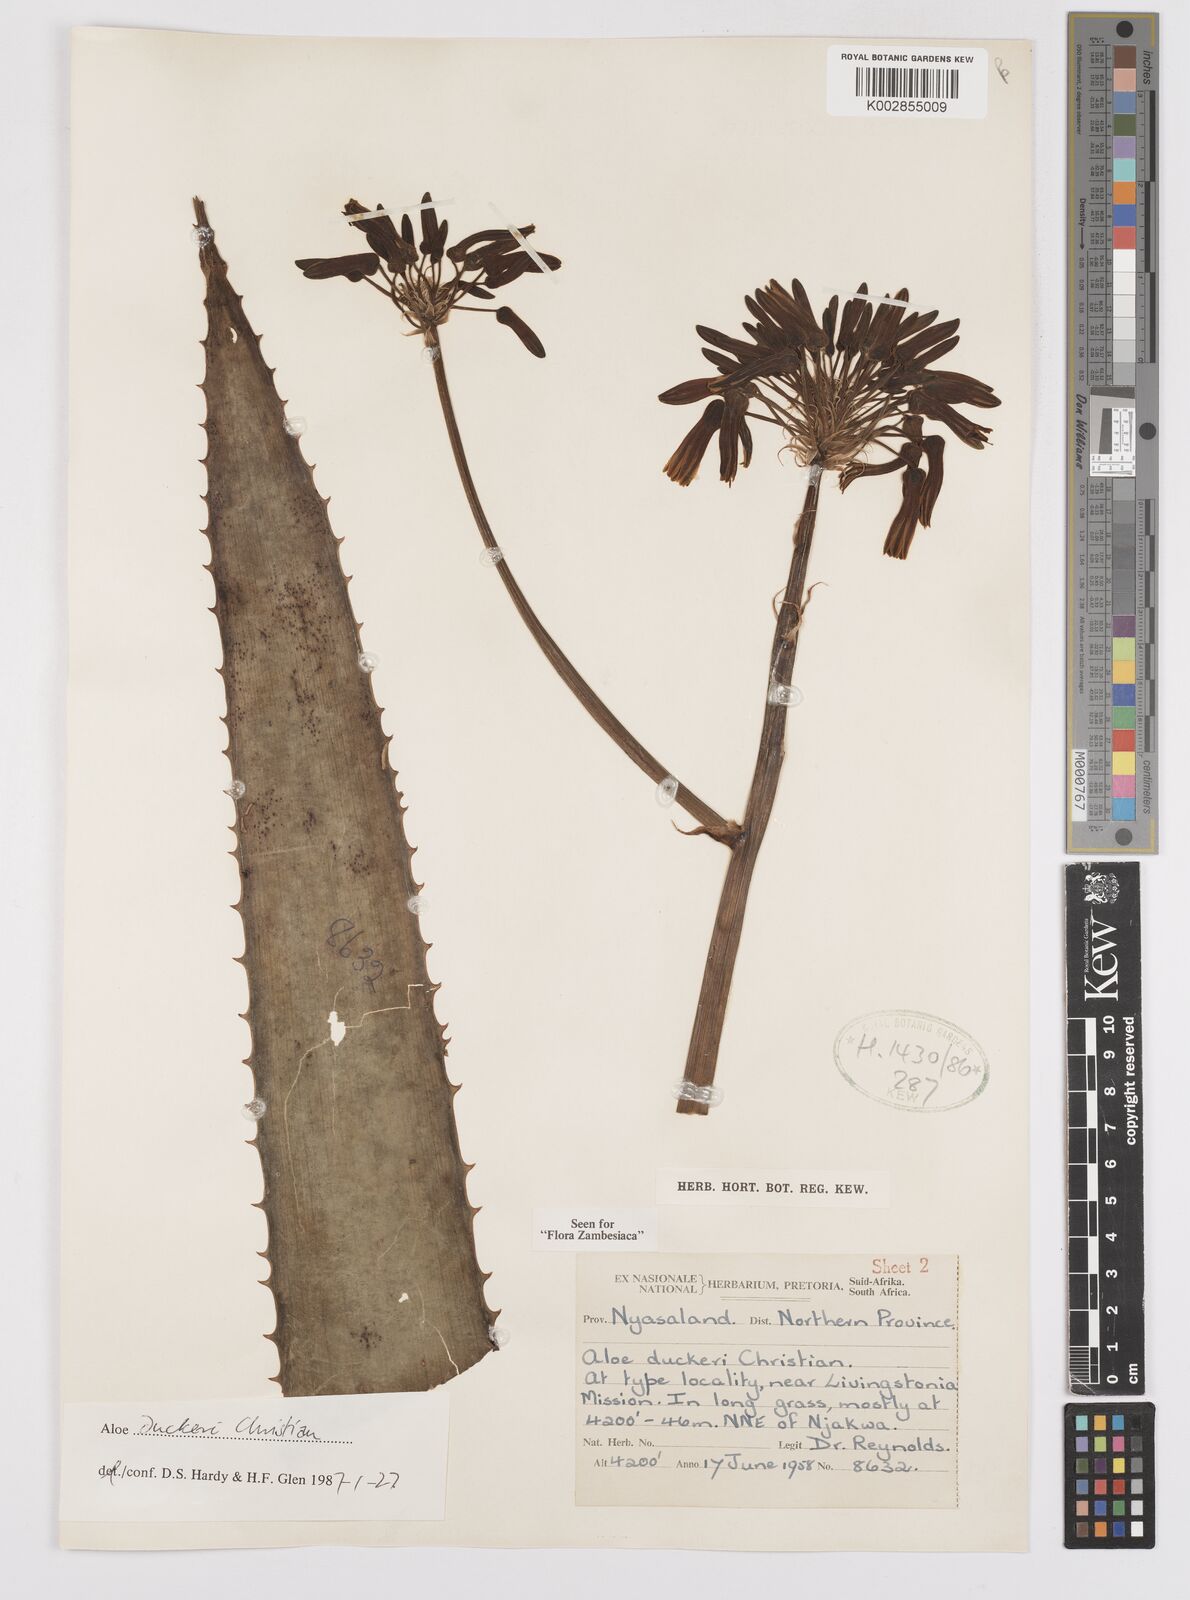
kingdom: Plantae
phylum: Tracheophyta
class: Liliopsida
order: Asparagales
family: Asphodelaceae
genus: Aloe
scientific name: Aloe duckeri
